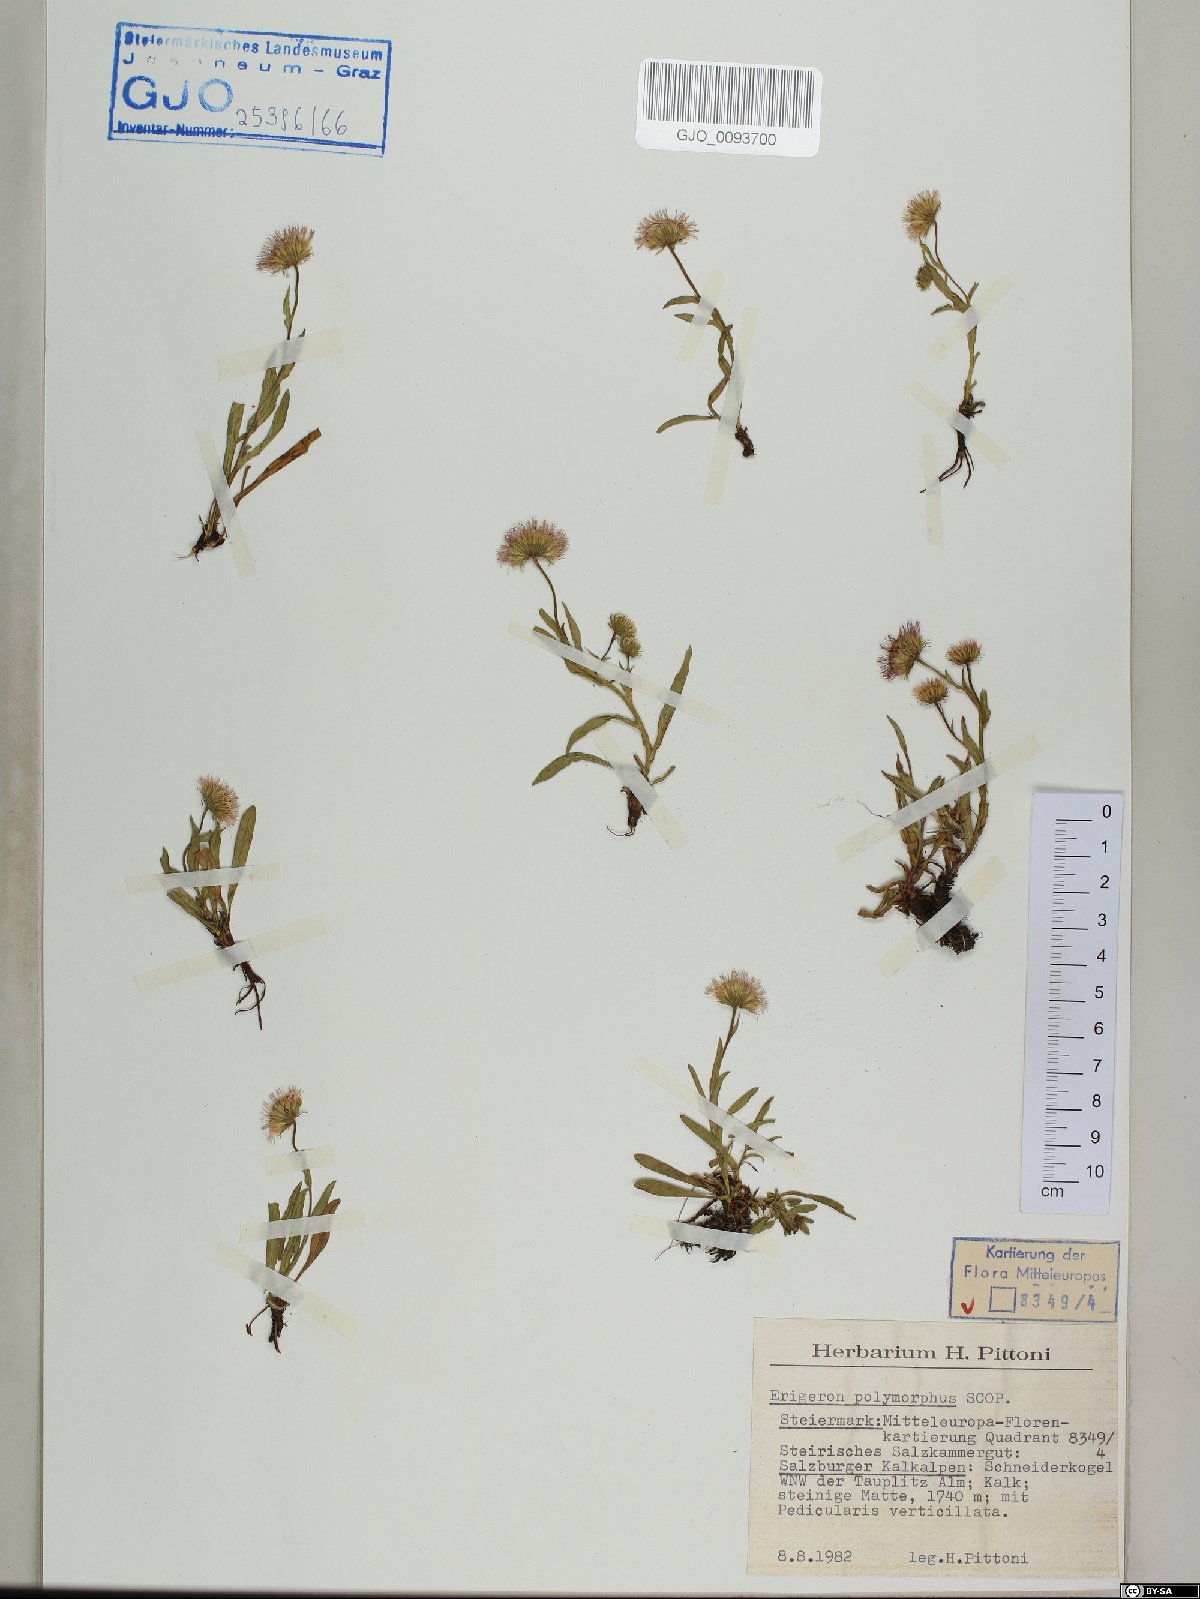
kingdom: Plantae
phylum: Tracheophyta
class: Magnoliopsida
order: Asterales
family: Asteraceae
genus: Erigeron
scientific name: Erigeron alpinus
